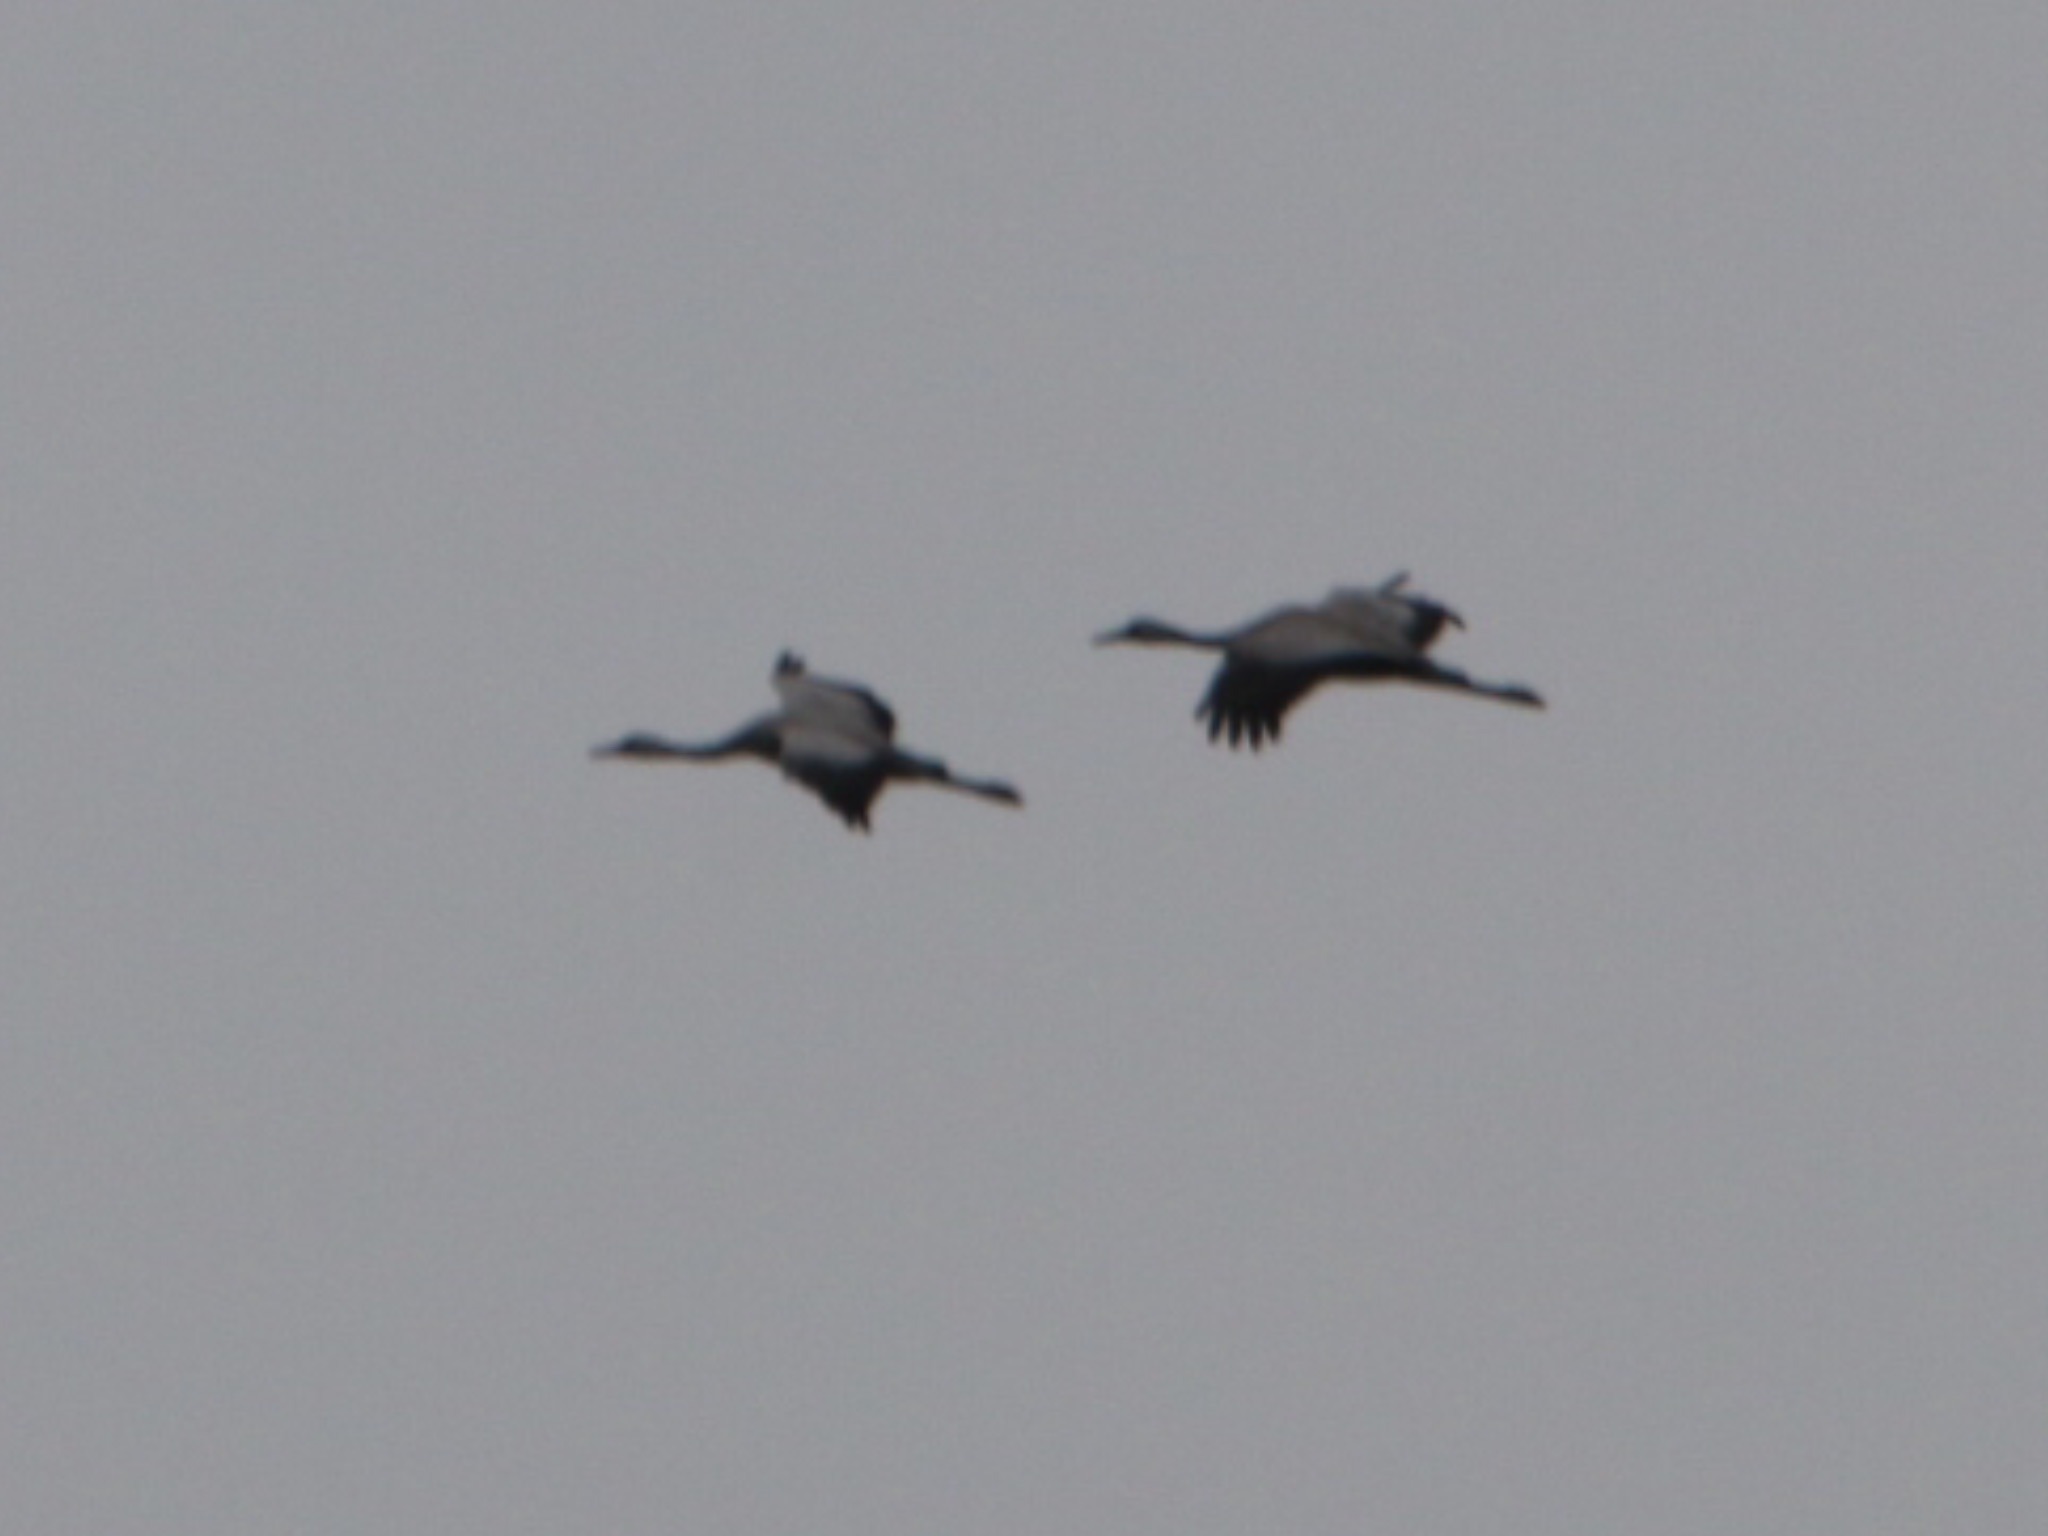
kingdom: Animalia
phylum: Chordata
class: Aves
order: Gruiformes
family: Gruidae
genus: Grus
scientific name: Grus grus
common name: Trane
